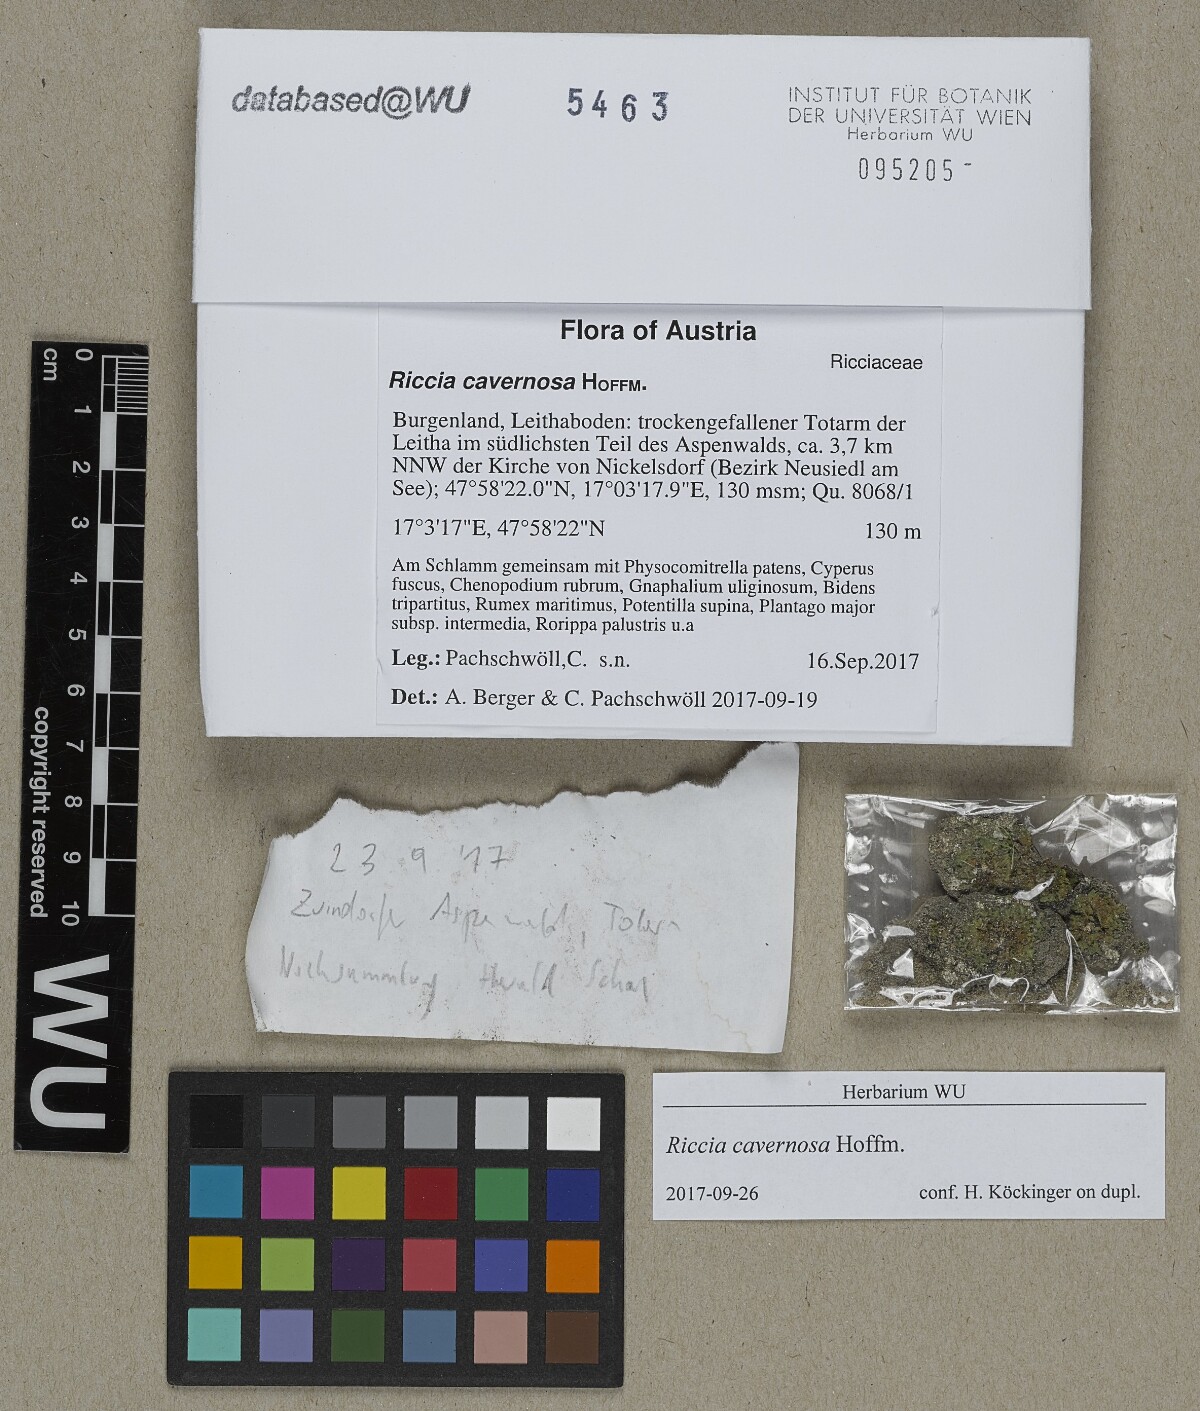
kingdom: Plantae
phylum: Marchantiophyta
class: Marchantiopsida
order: Marchantiales
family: Ricciaceae
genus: Riccia
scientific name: Riccia cavernosa
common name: Cavernous crystalwort
